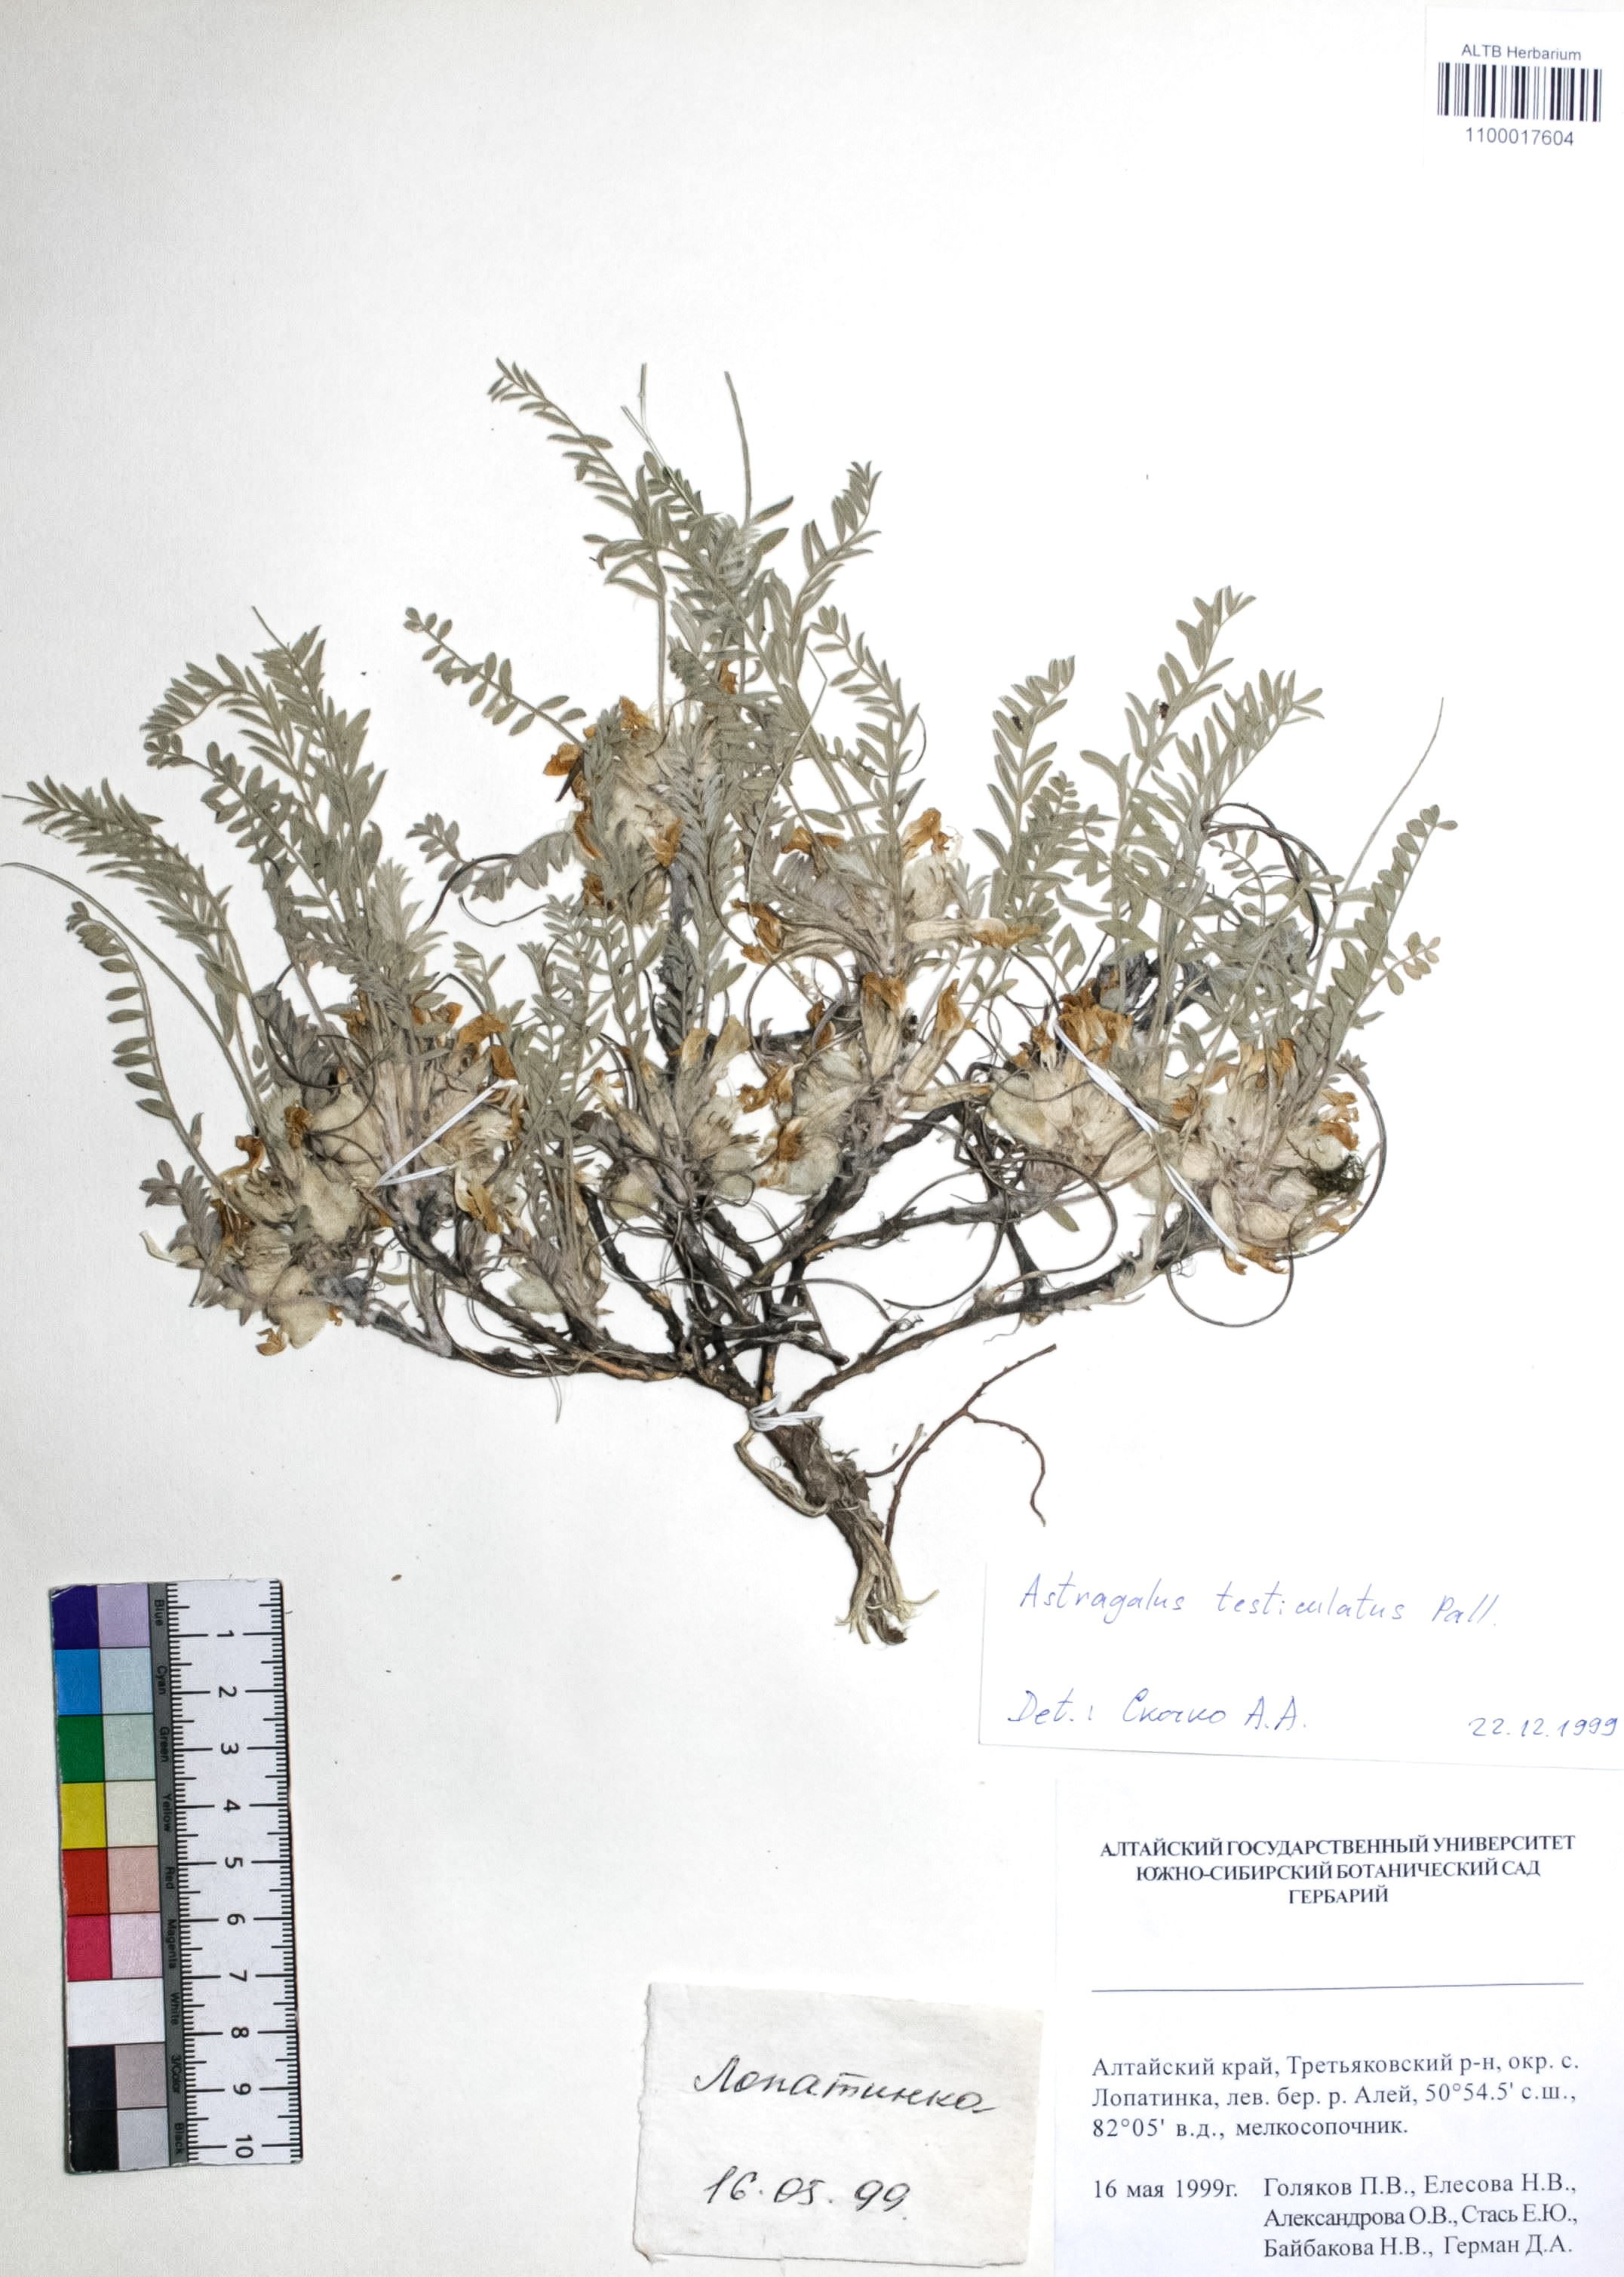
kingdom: Plantae
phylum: Tracheophyta
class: Magnoliopsida
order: Fabales
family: Fabaceae
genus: Astragalus
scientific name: Astragalus testiculatus
